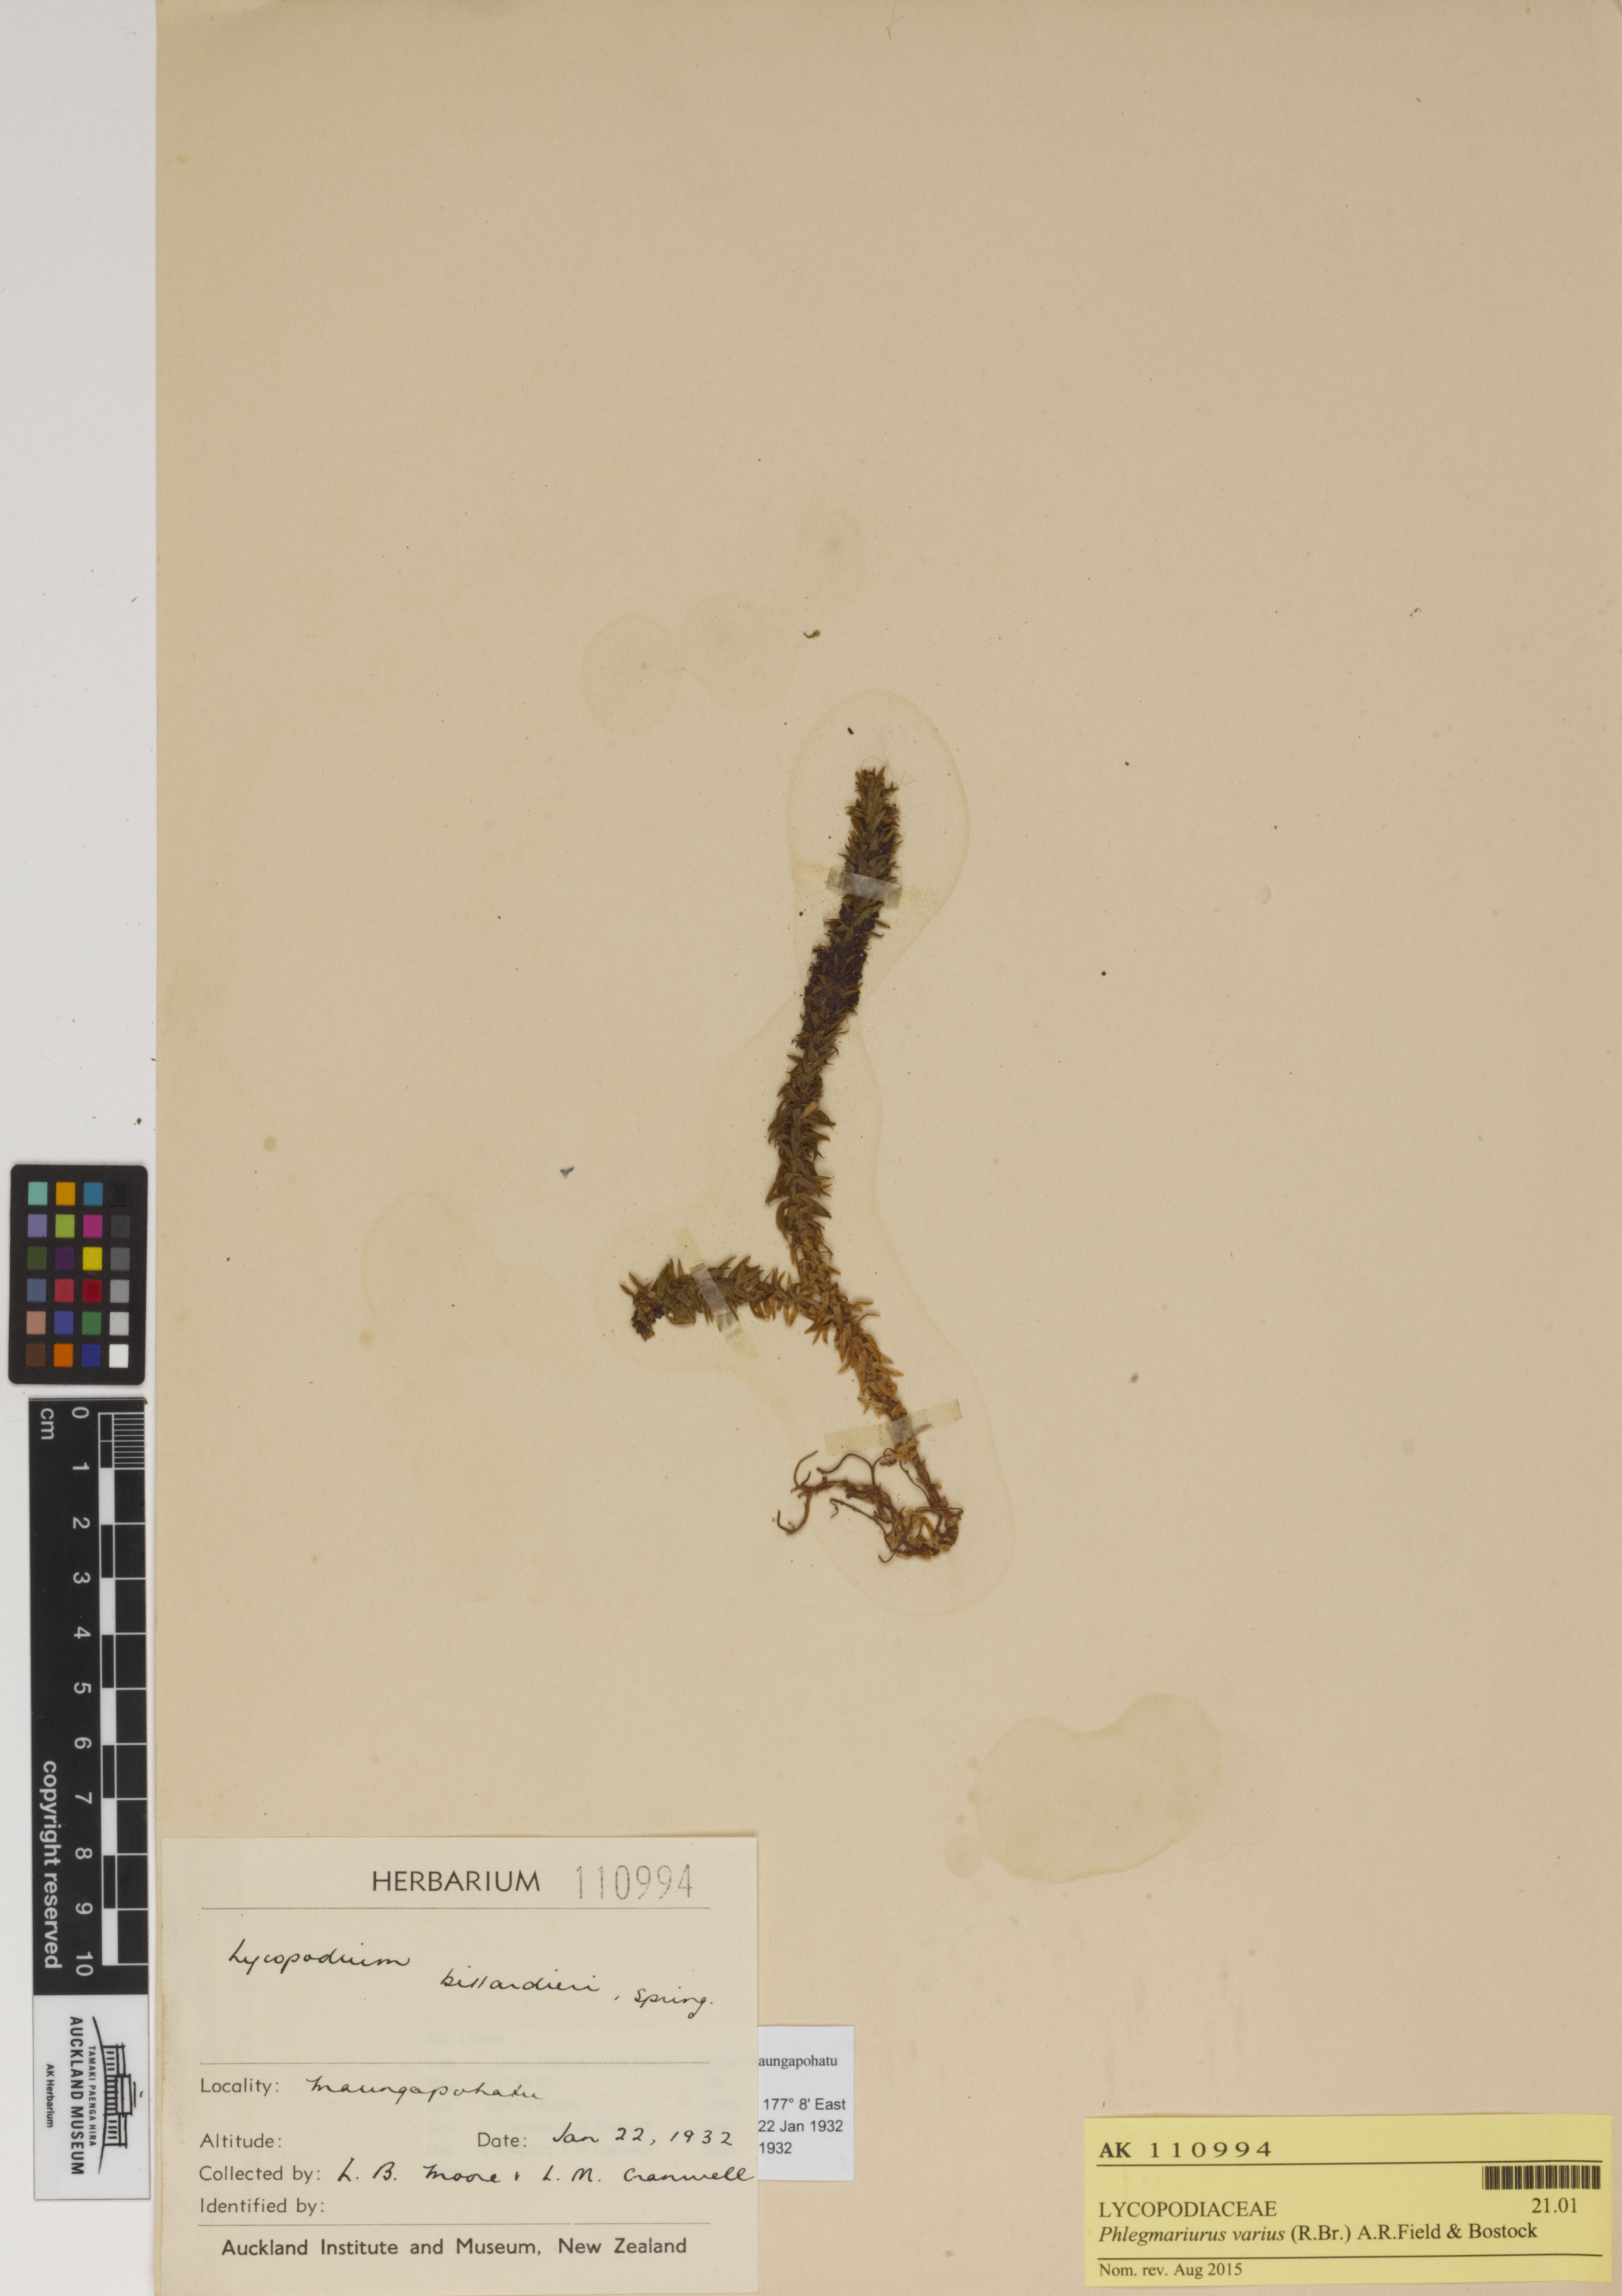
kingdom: Plantae
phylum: Tracheophyta
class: Lycopodiopsida
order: Lycopodiales
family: Lycopodiaceae
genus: Huperzia
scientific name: Huperzia australiana
